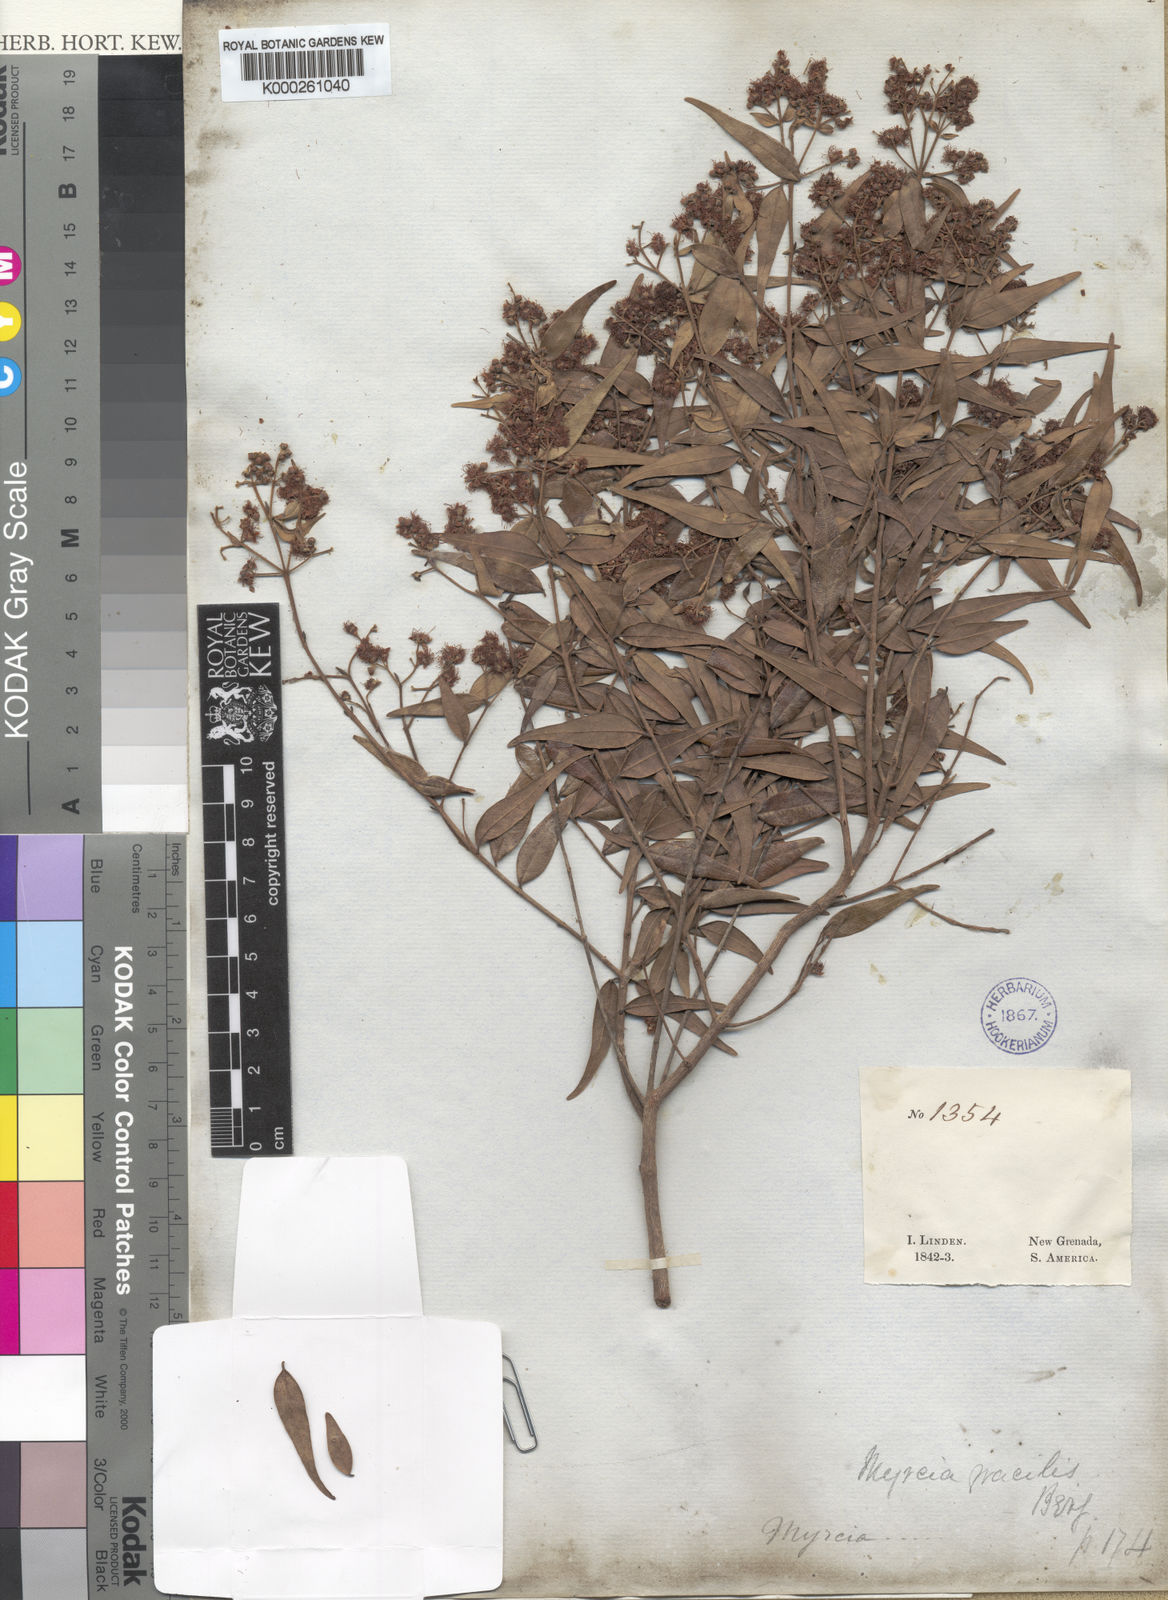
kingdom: Plantae
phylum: Tracheophyta
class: Magnoliopsida
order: Myrtales
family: Myrtaceae
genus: Myrcia
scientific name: Myrcia splendens
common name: Surinam cherry
